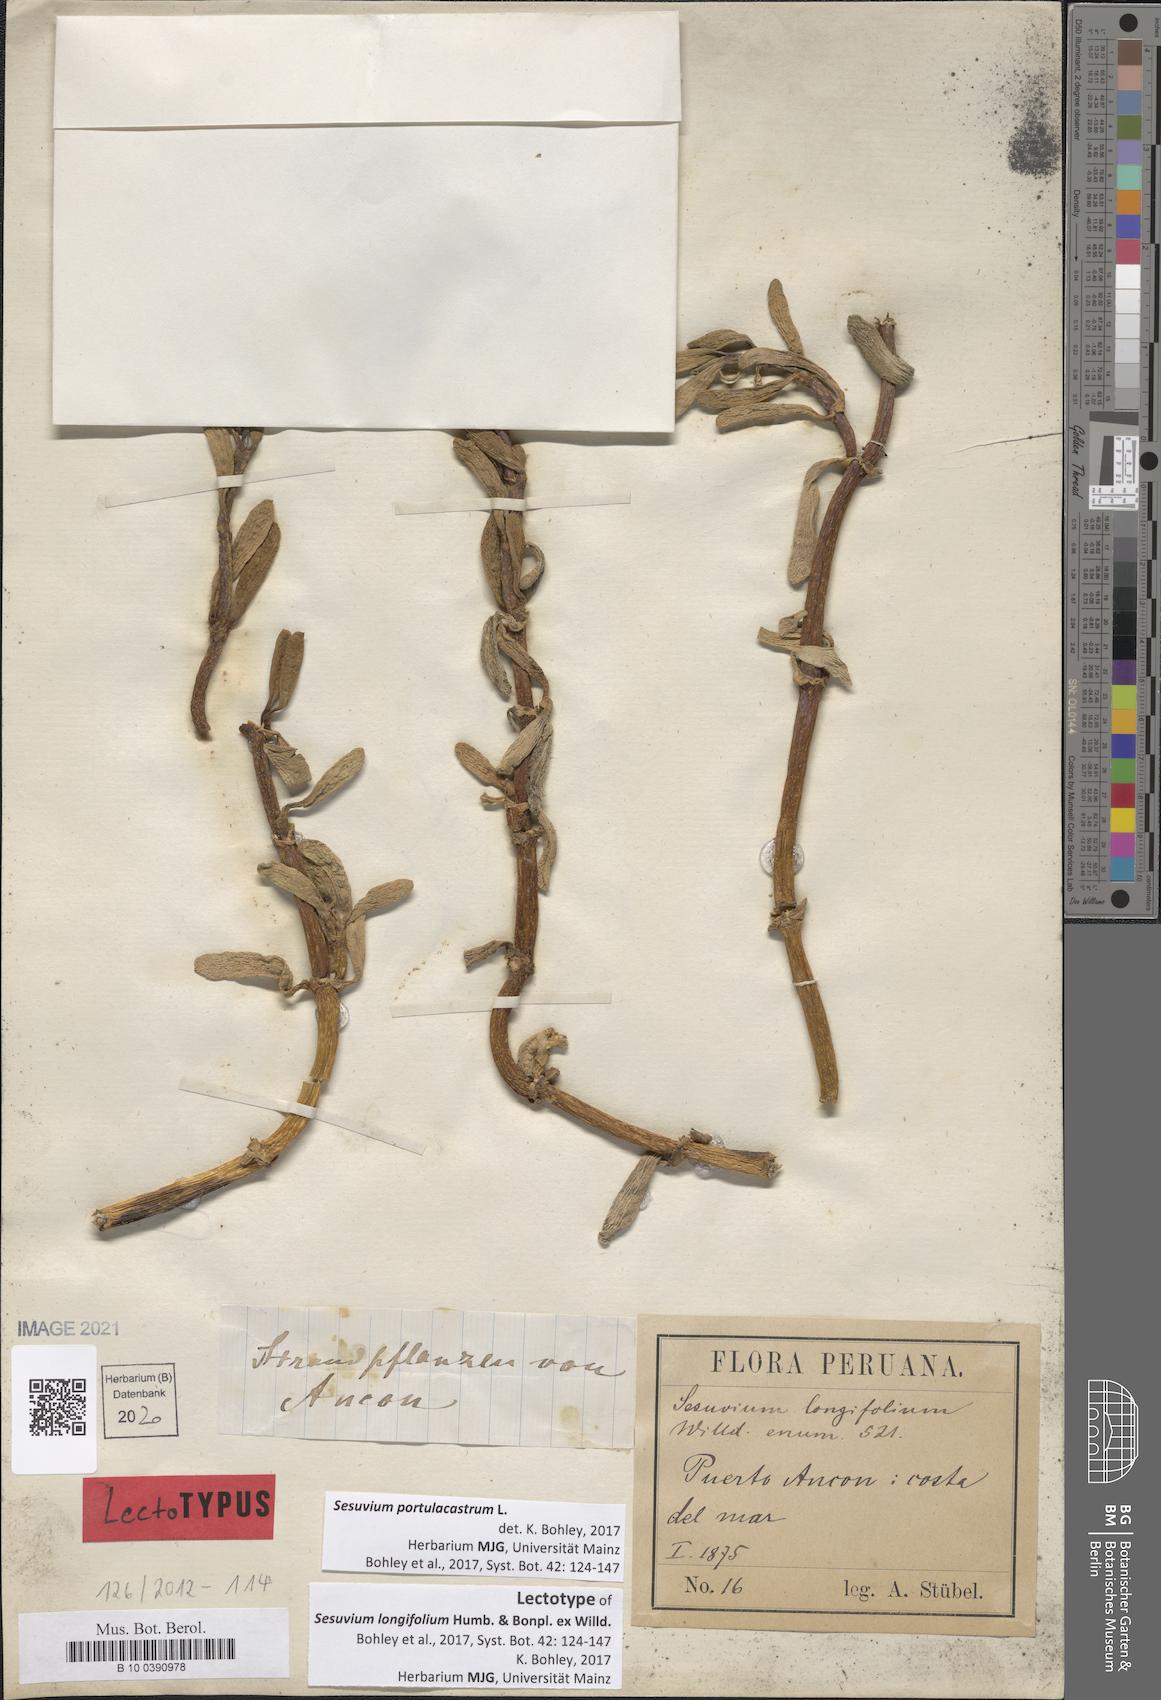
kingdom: Plantae
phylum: Tracheophyta
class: Magnoliopsida
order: Caryophyllales
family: Aizoaceae
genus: Sesuvium
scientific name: Sesuvium portulacastrum
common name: Sea-purslane
